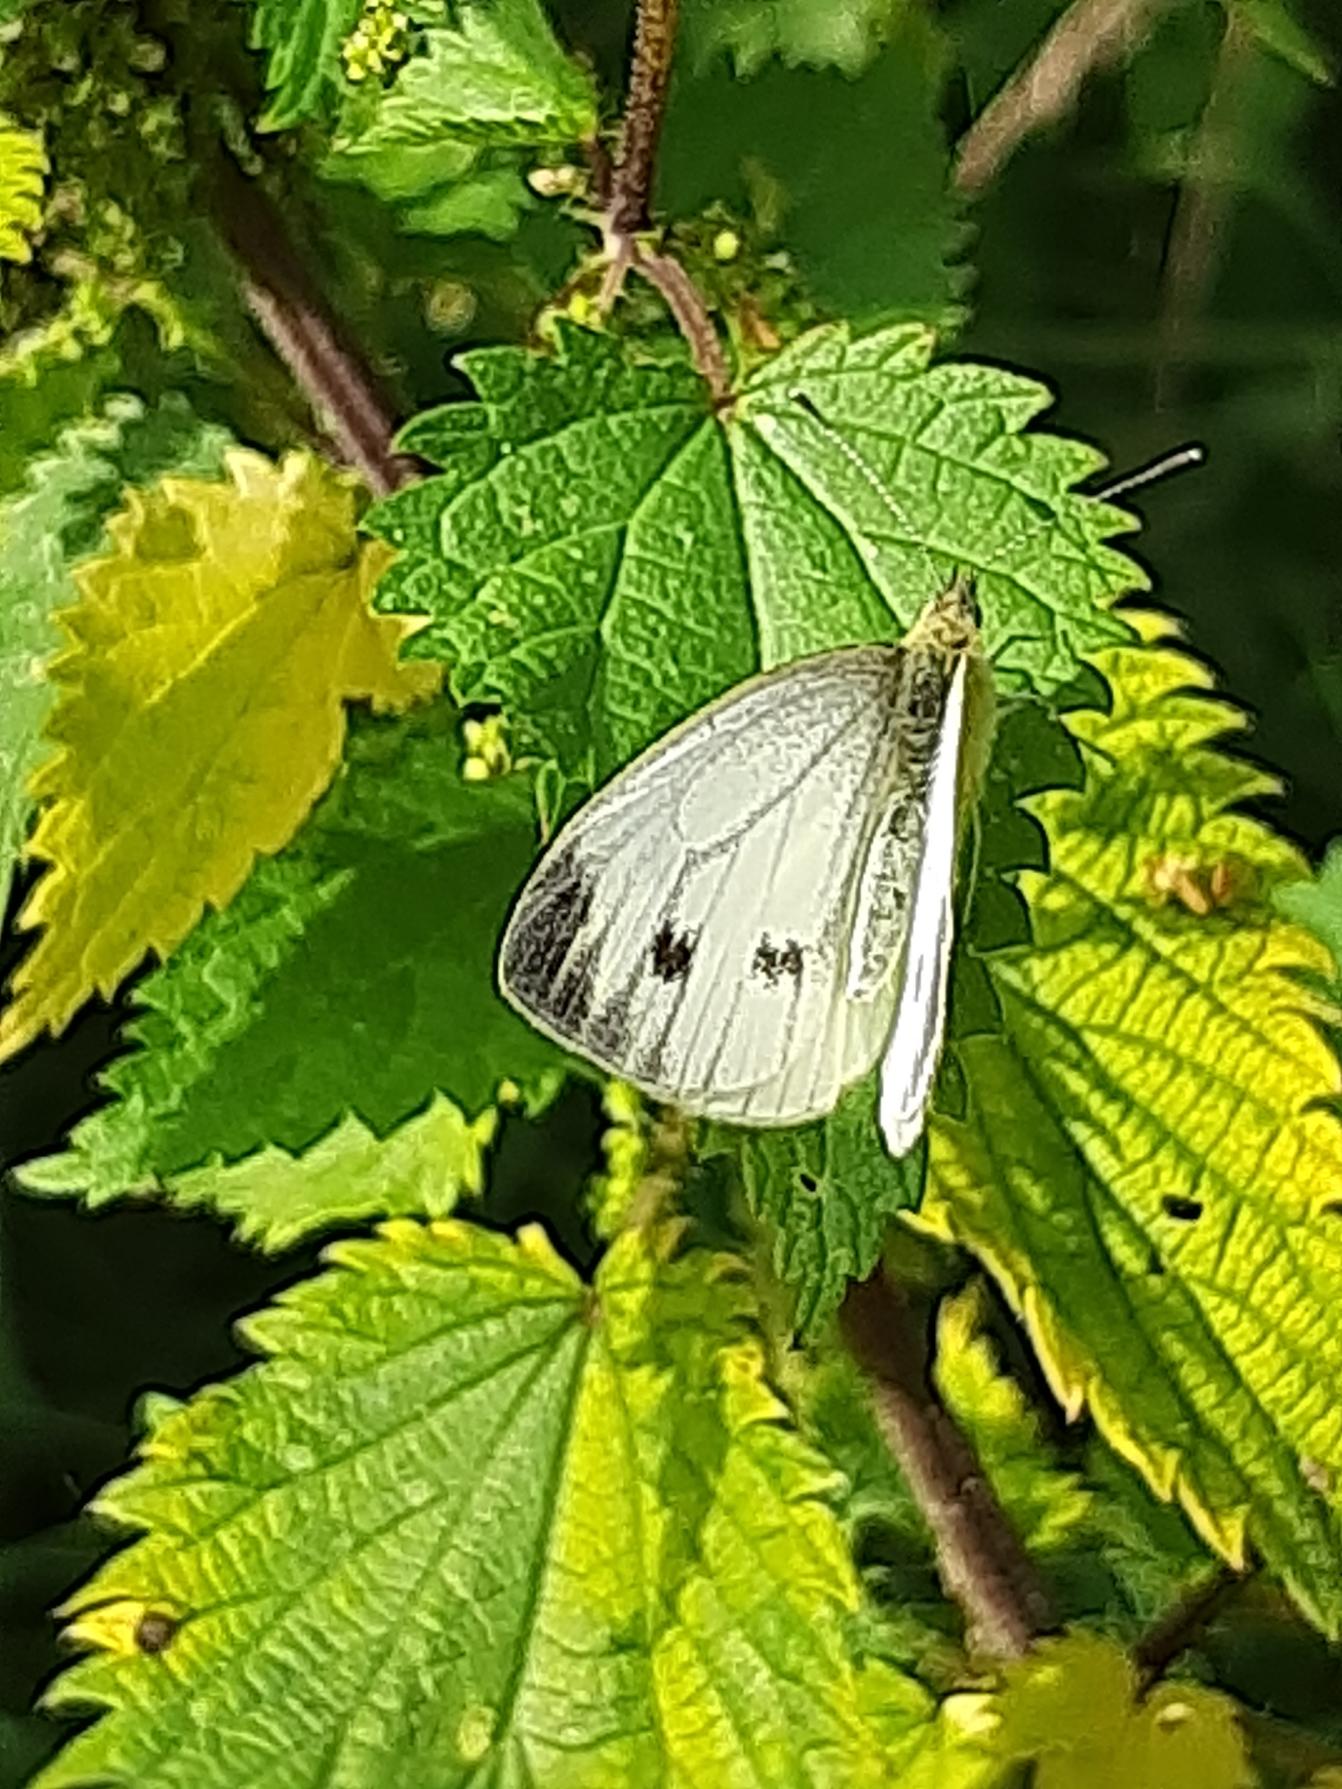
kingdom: Animalia
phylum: Arthropoda
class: Insecta
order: Lepidoptera
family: Pieridae
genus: Pieris
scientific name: Pieris napi
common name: Grønåret kålsommerfugl
